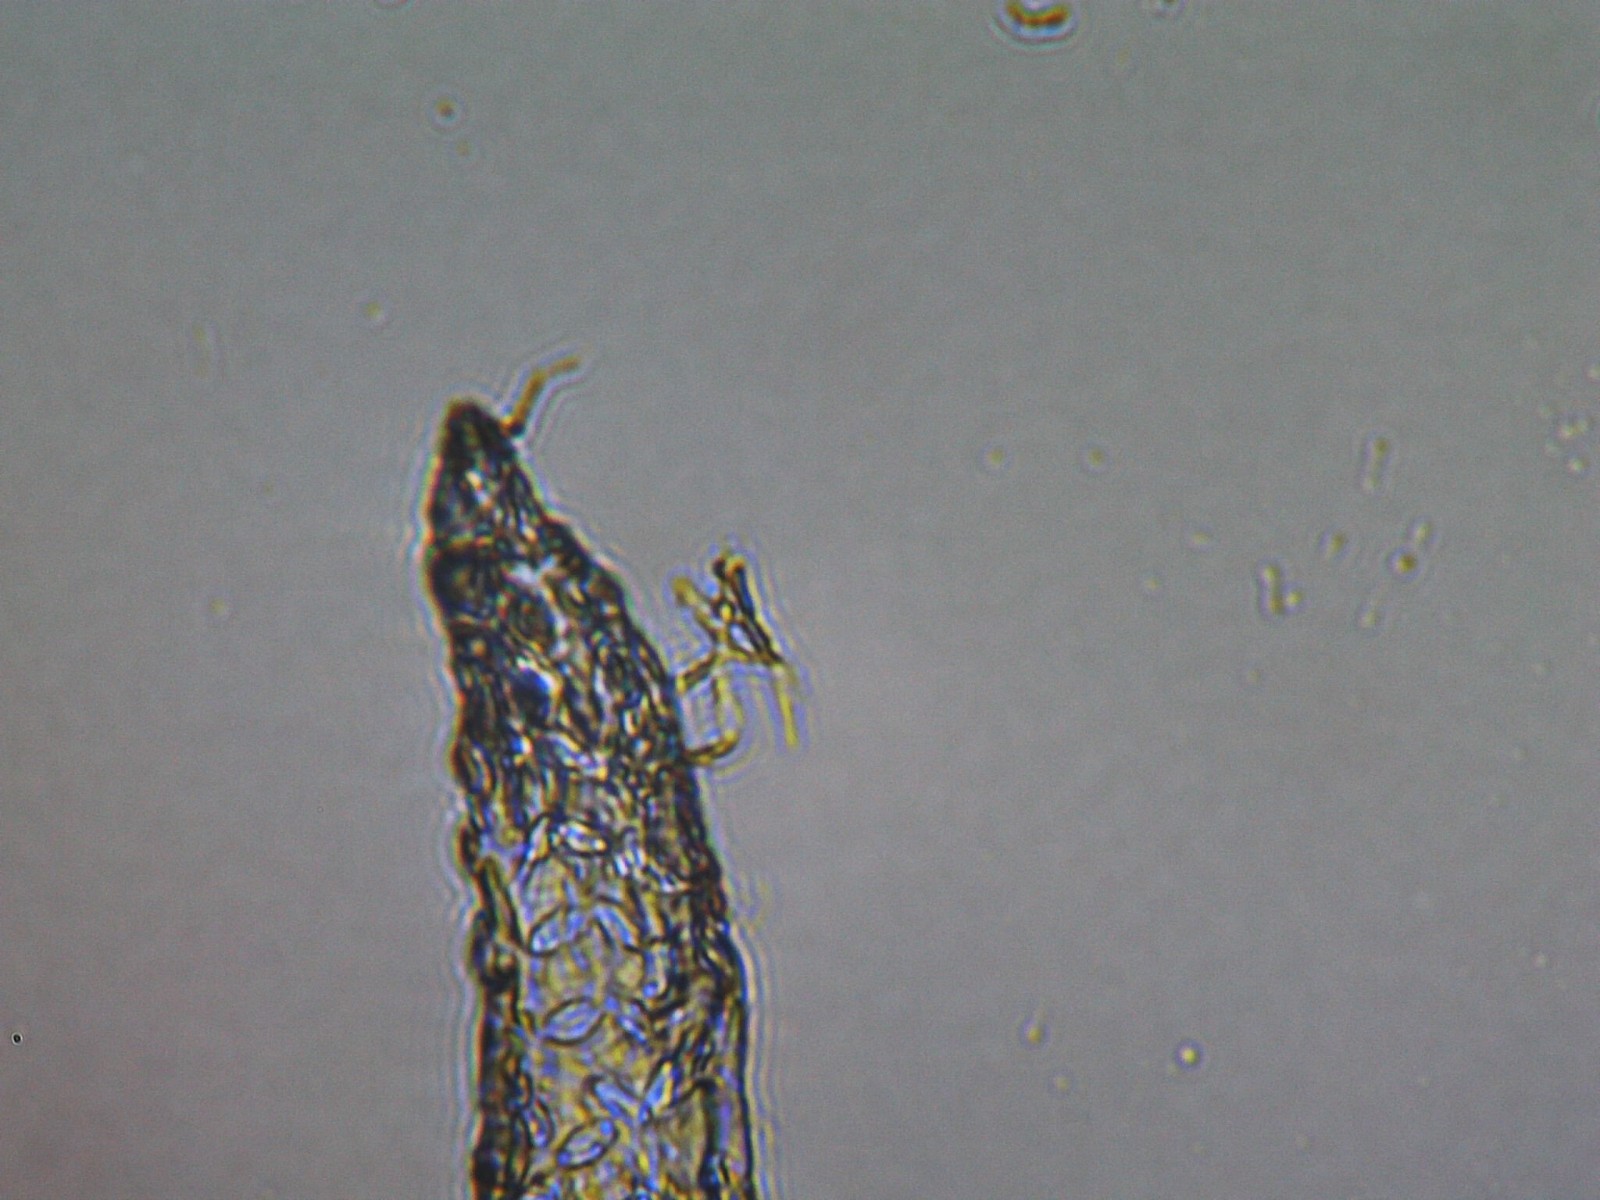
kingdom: Fungi
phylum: Basidiomycota
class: Pucciniomycetes
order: Pucciniales
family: Pucciniaceae
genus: Puccinia
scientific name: Puccinia sessilis
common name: Arum rust
